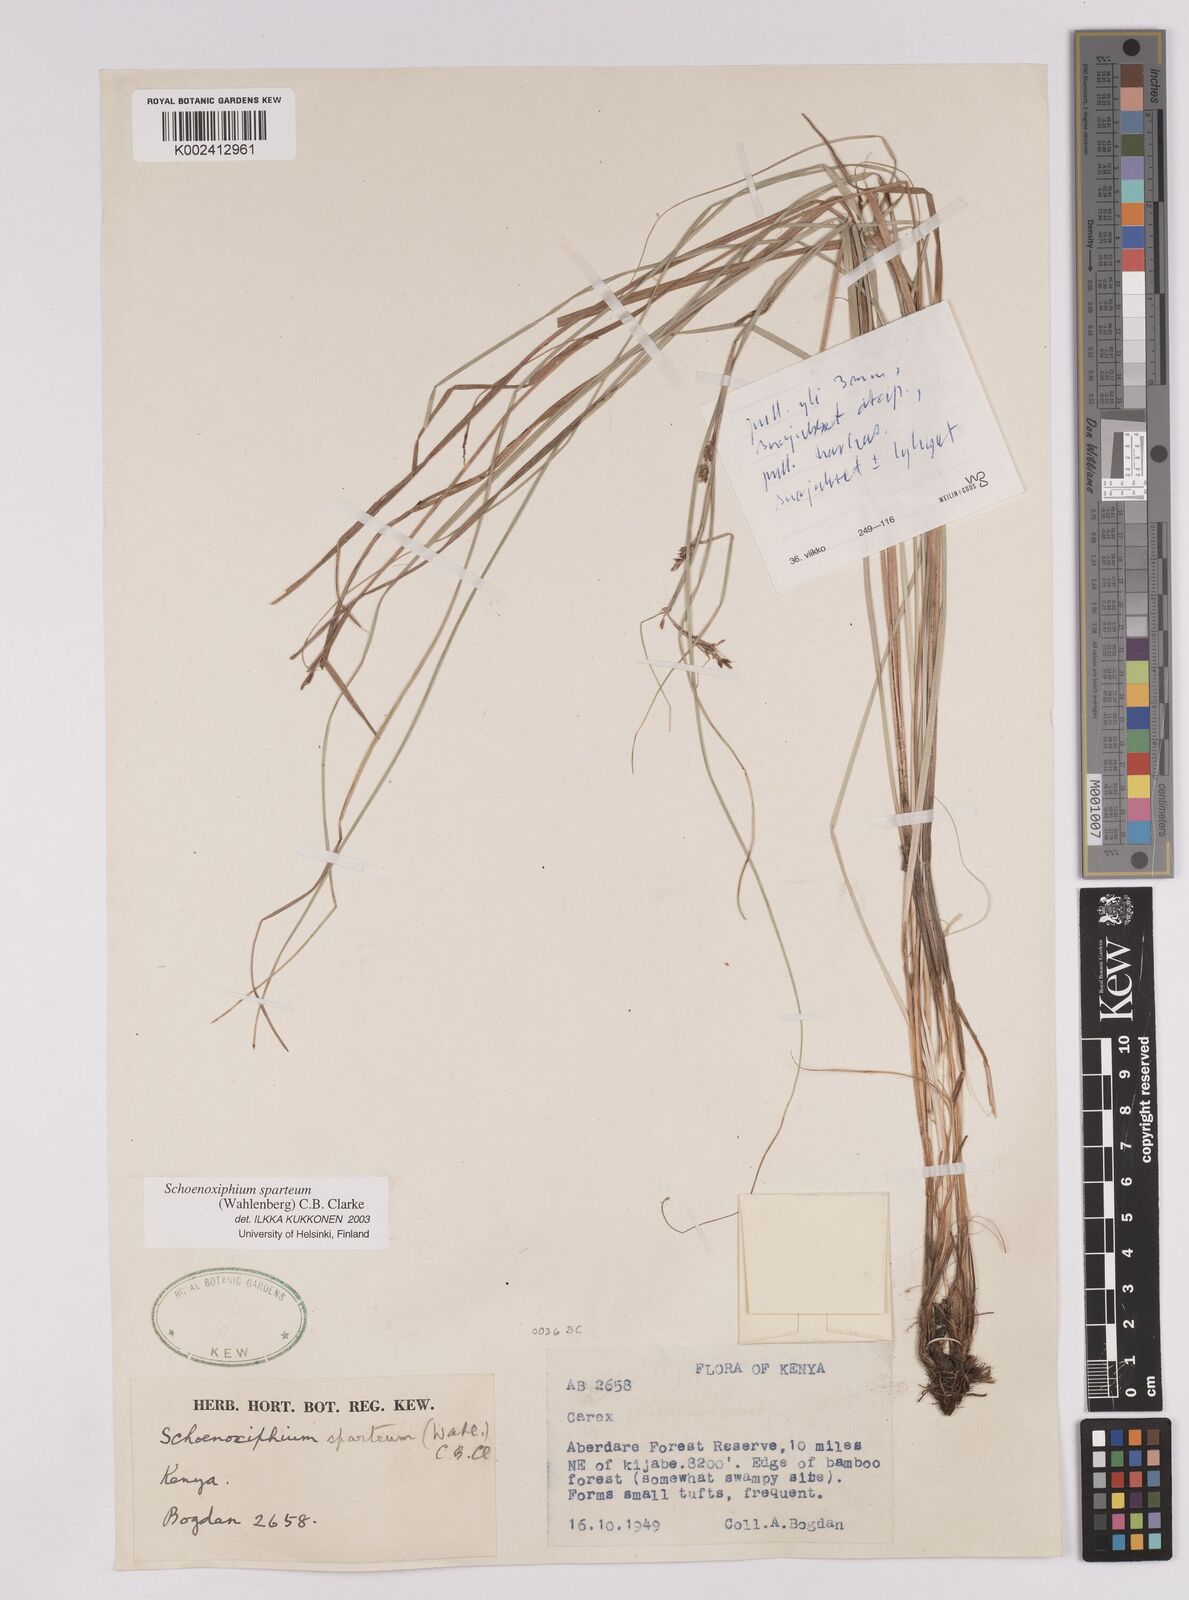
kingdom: Plantae
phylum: Tracheophyta
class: Liliopsida
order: Poales
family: Cyperaceae
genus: Carex
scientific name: Carex schimperiana
